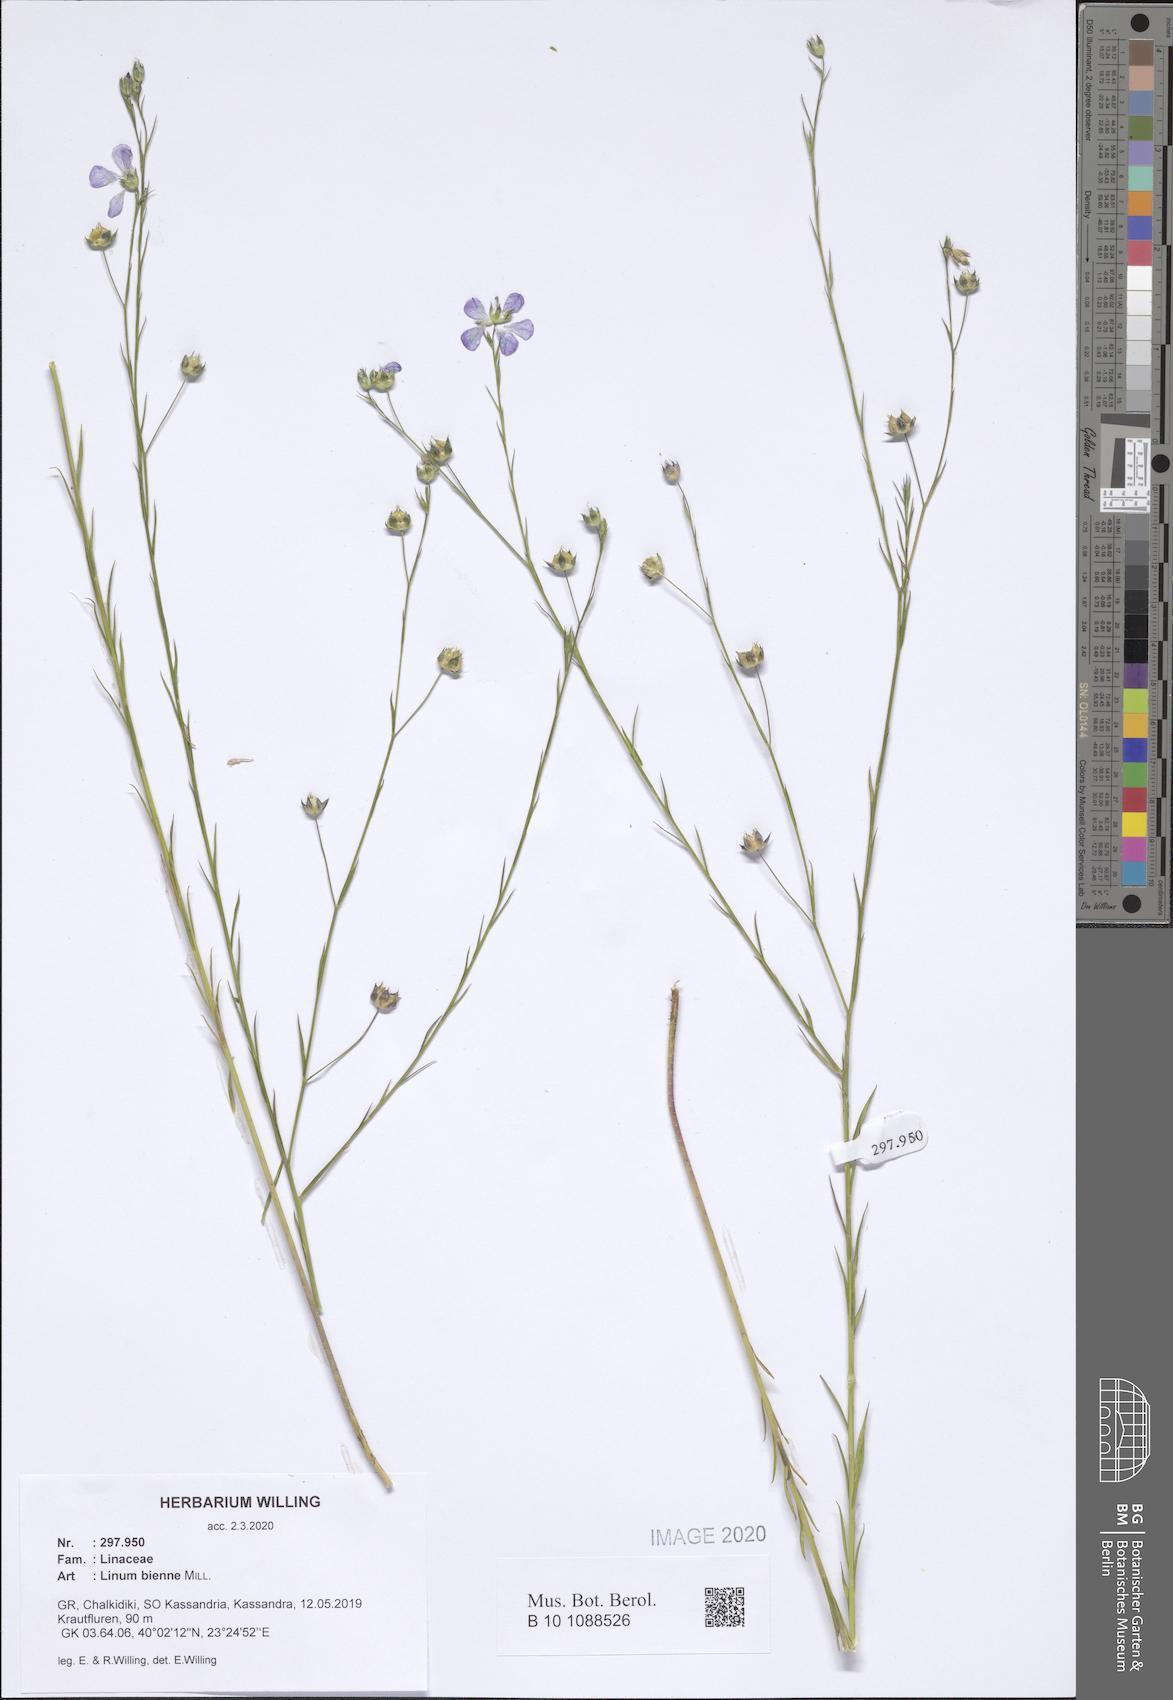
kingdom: Plantae
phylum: Tracheophyta
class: Magnoliopsida
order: Malpighiales
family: Linaceae
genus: Linum
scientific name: Linum bienne
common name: Pale flax
